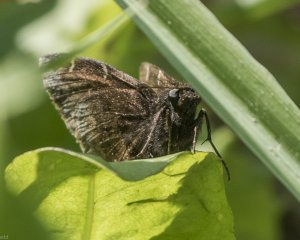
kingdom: Animalia
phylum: Arthropoda
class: Insecta
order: Lepidoptera
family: Hesperiidae
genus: Autochton
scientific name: Autochton
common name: Northern Cloudywing
